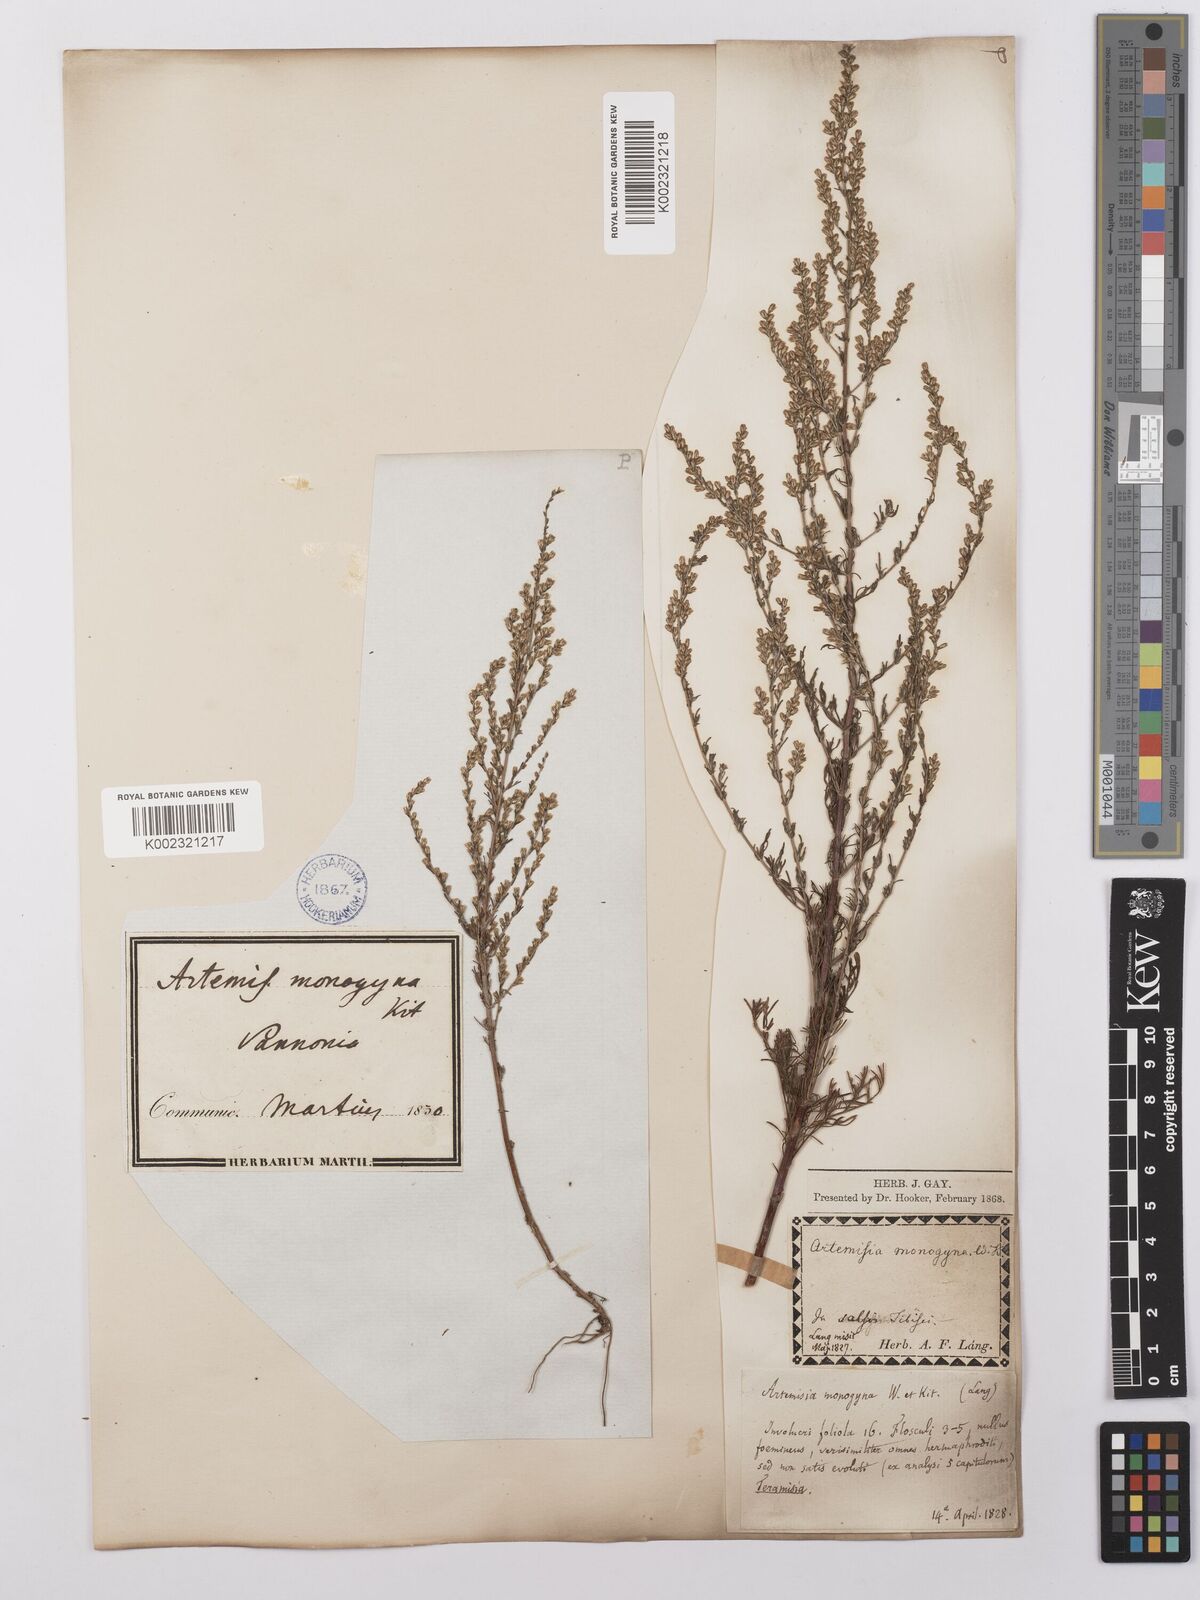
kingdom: Plantae
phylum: Tracheophyta
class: Magnoliopsida
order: Asterales
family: Asteraceae
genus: Artemisia
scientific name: Artemisia maritima
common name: Wormseed
